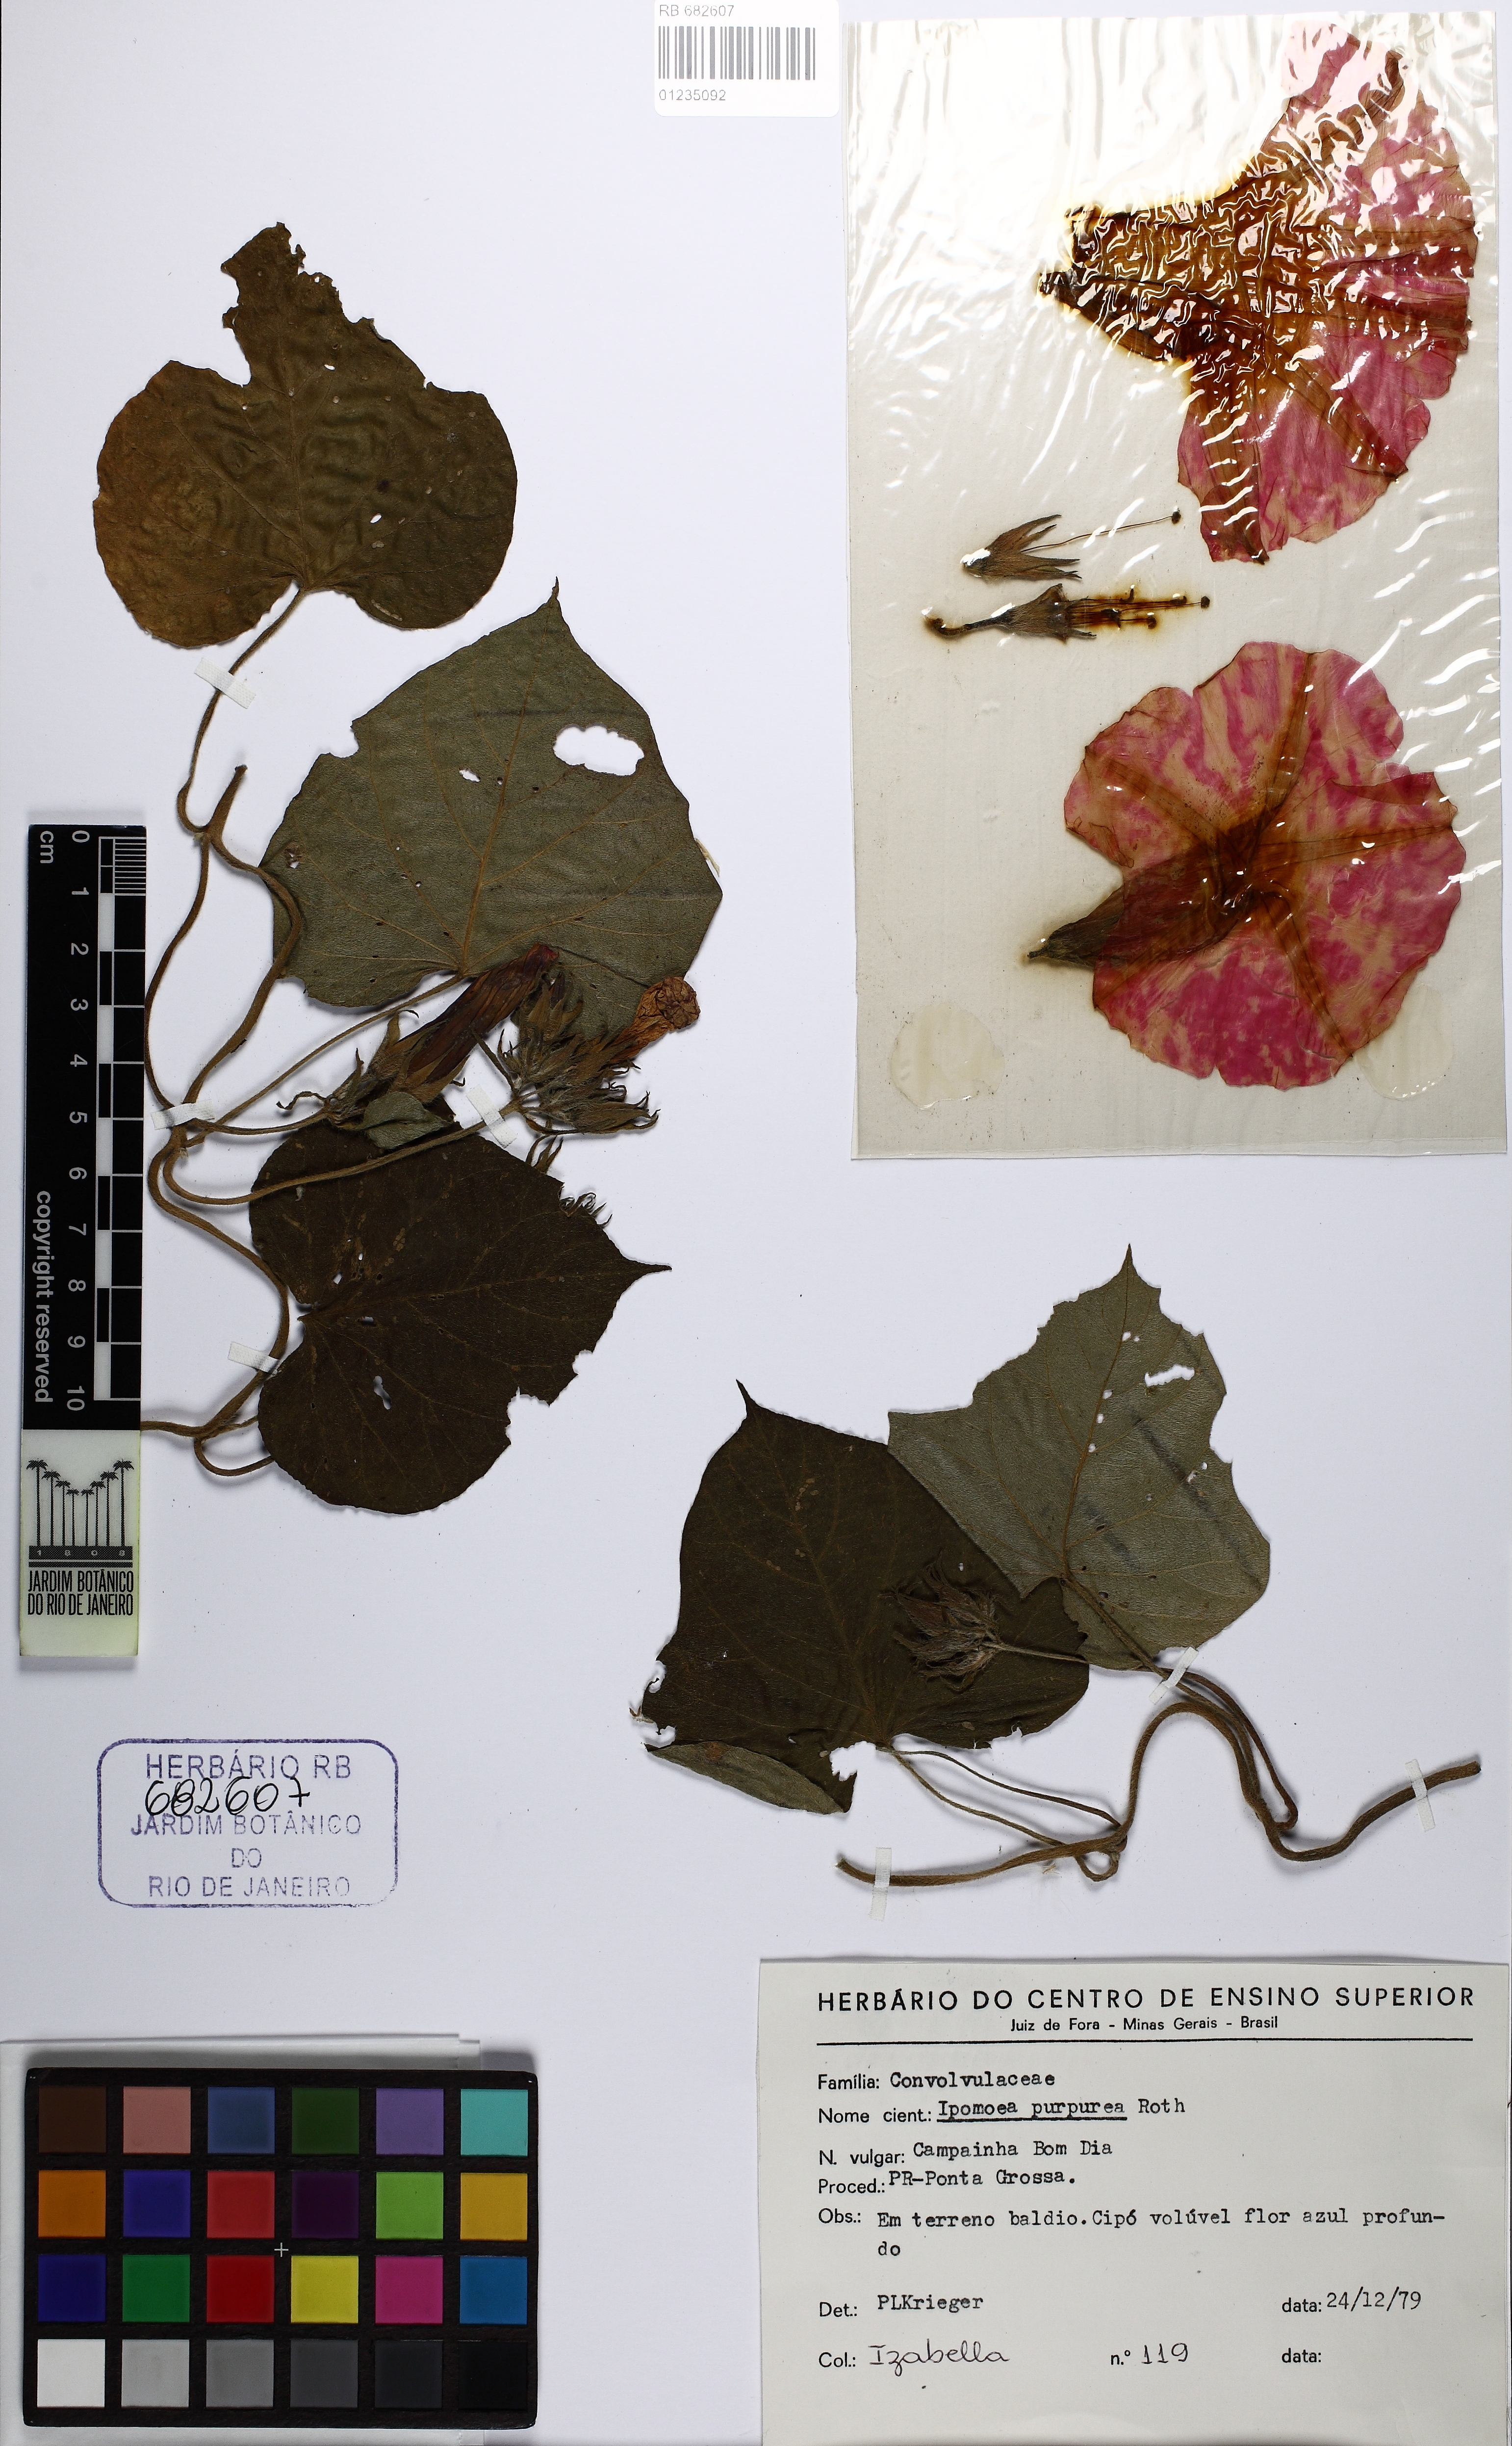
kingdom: Plantae
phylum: Tracheophyta
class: Magnoliopsida
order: Solanales
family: Convolvulaceae
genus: Ipomoea
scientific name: Ipomoea purpurea
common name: Common morning-glory
